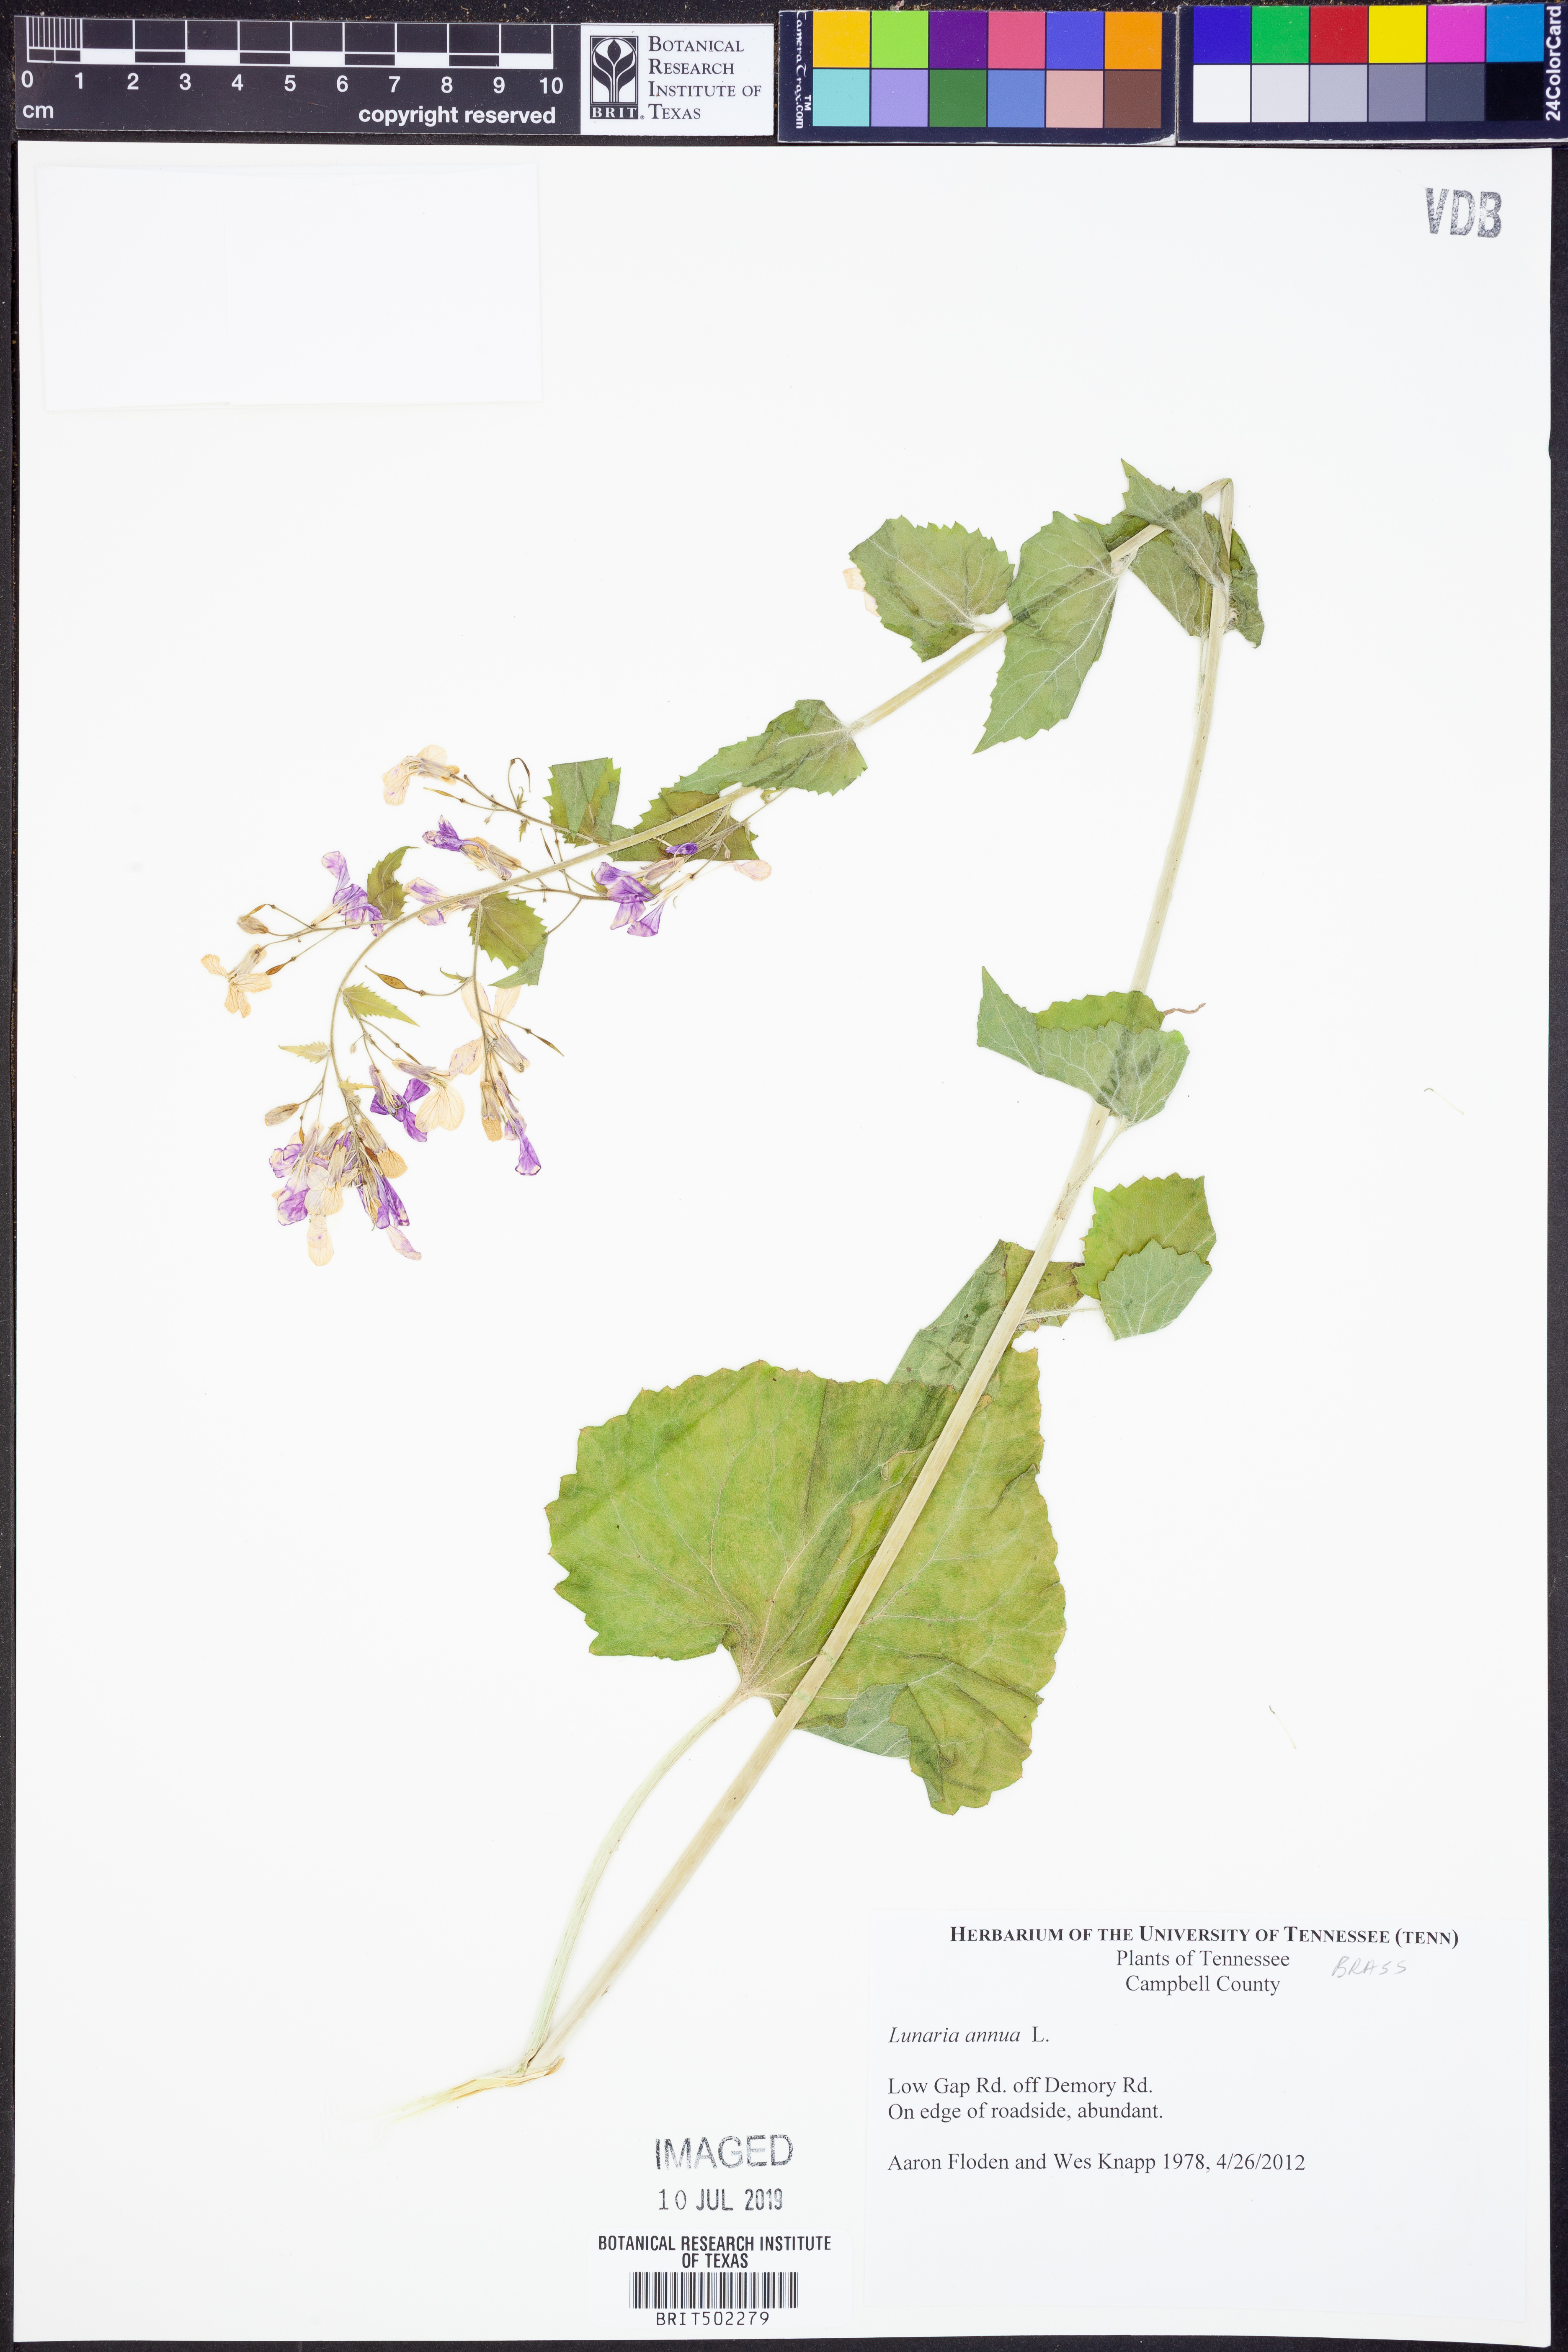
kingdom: Plantae
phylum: Tracheophyta
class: Magnoliopsida
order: Brassicales
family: Brassicaceae
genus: Lunaria
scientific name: Lunaria annua
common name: Honesty
